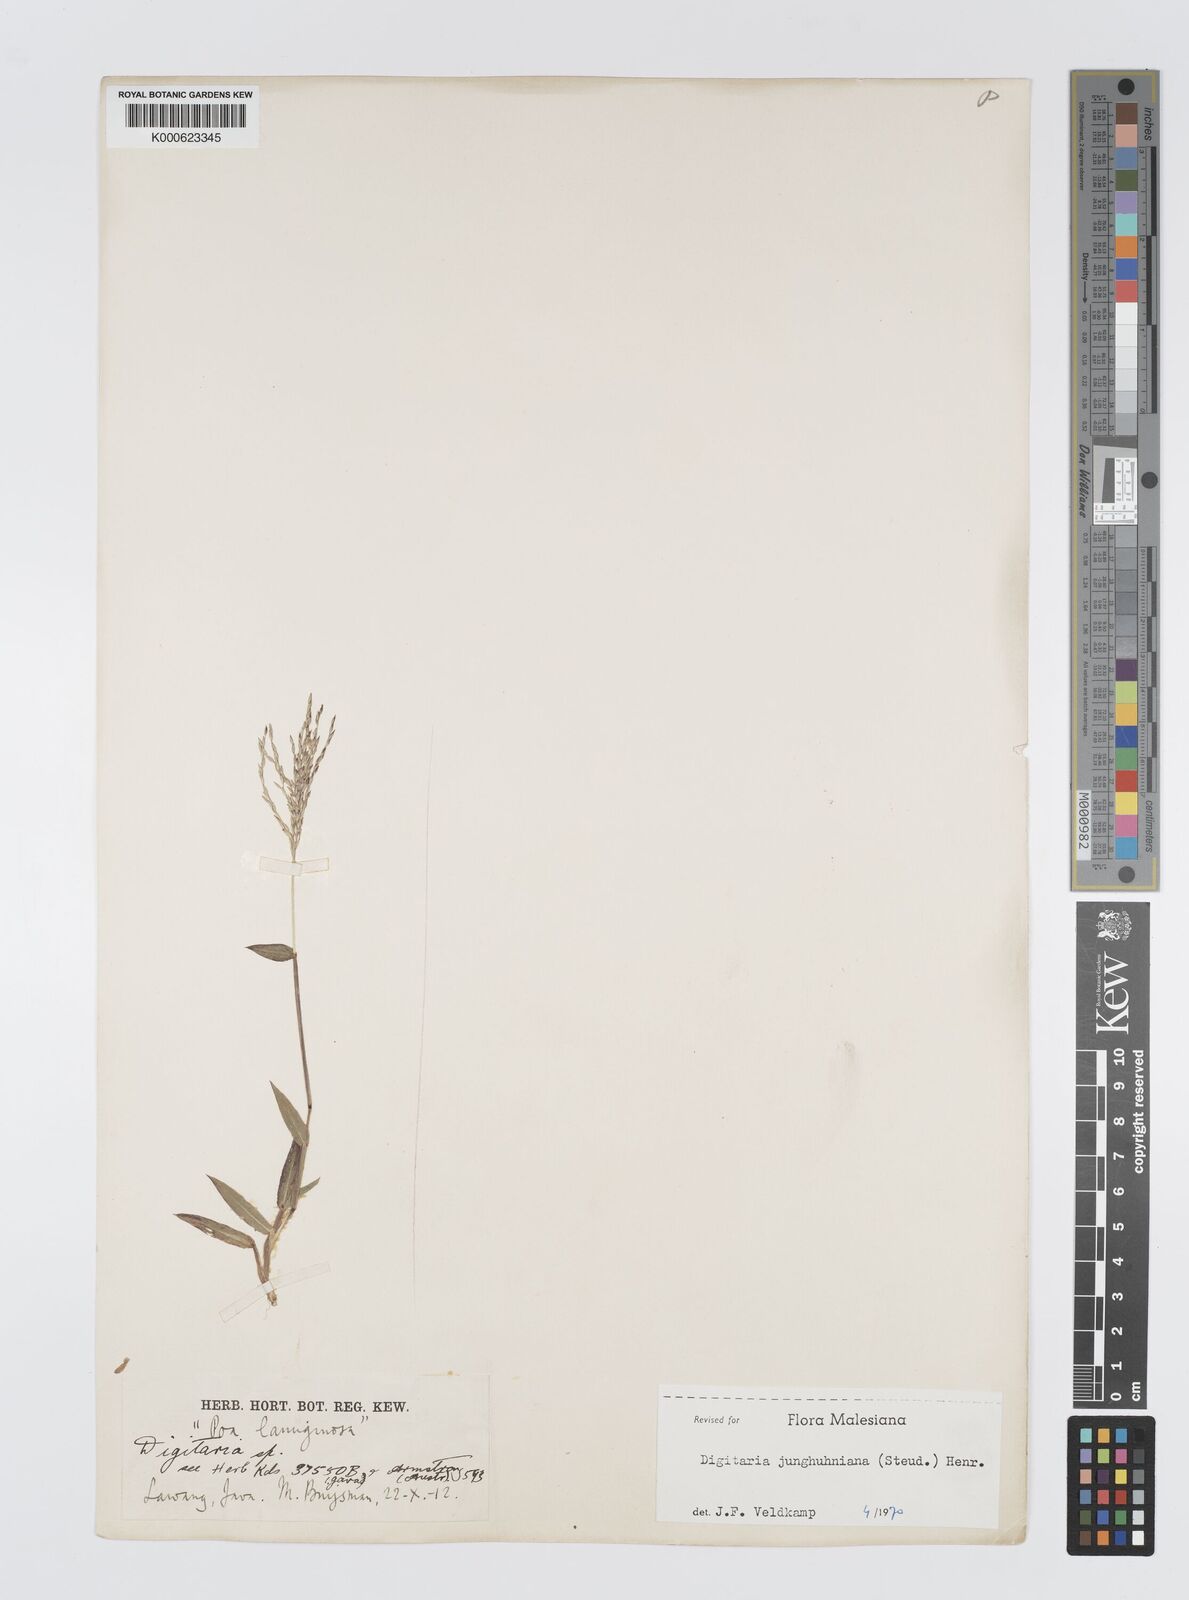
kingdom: Plantae
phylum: Tracheophyta
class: Liliopsida
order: Poales
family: Poaceae
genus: Digitaria
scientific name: Digitaria junghuhniana
